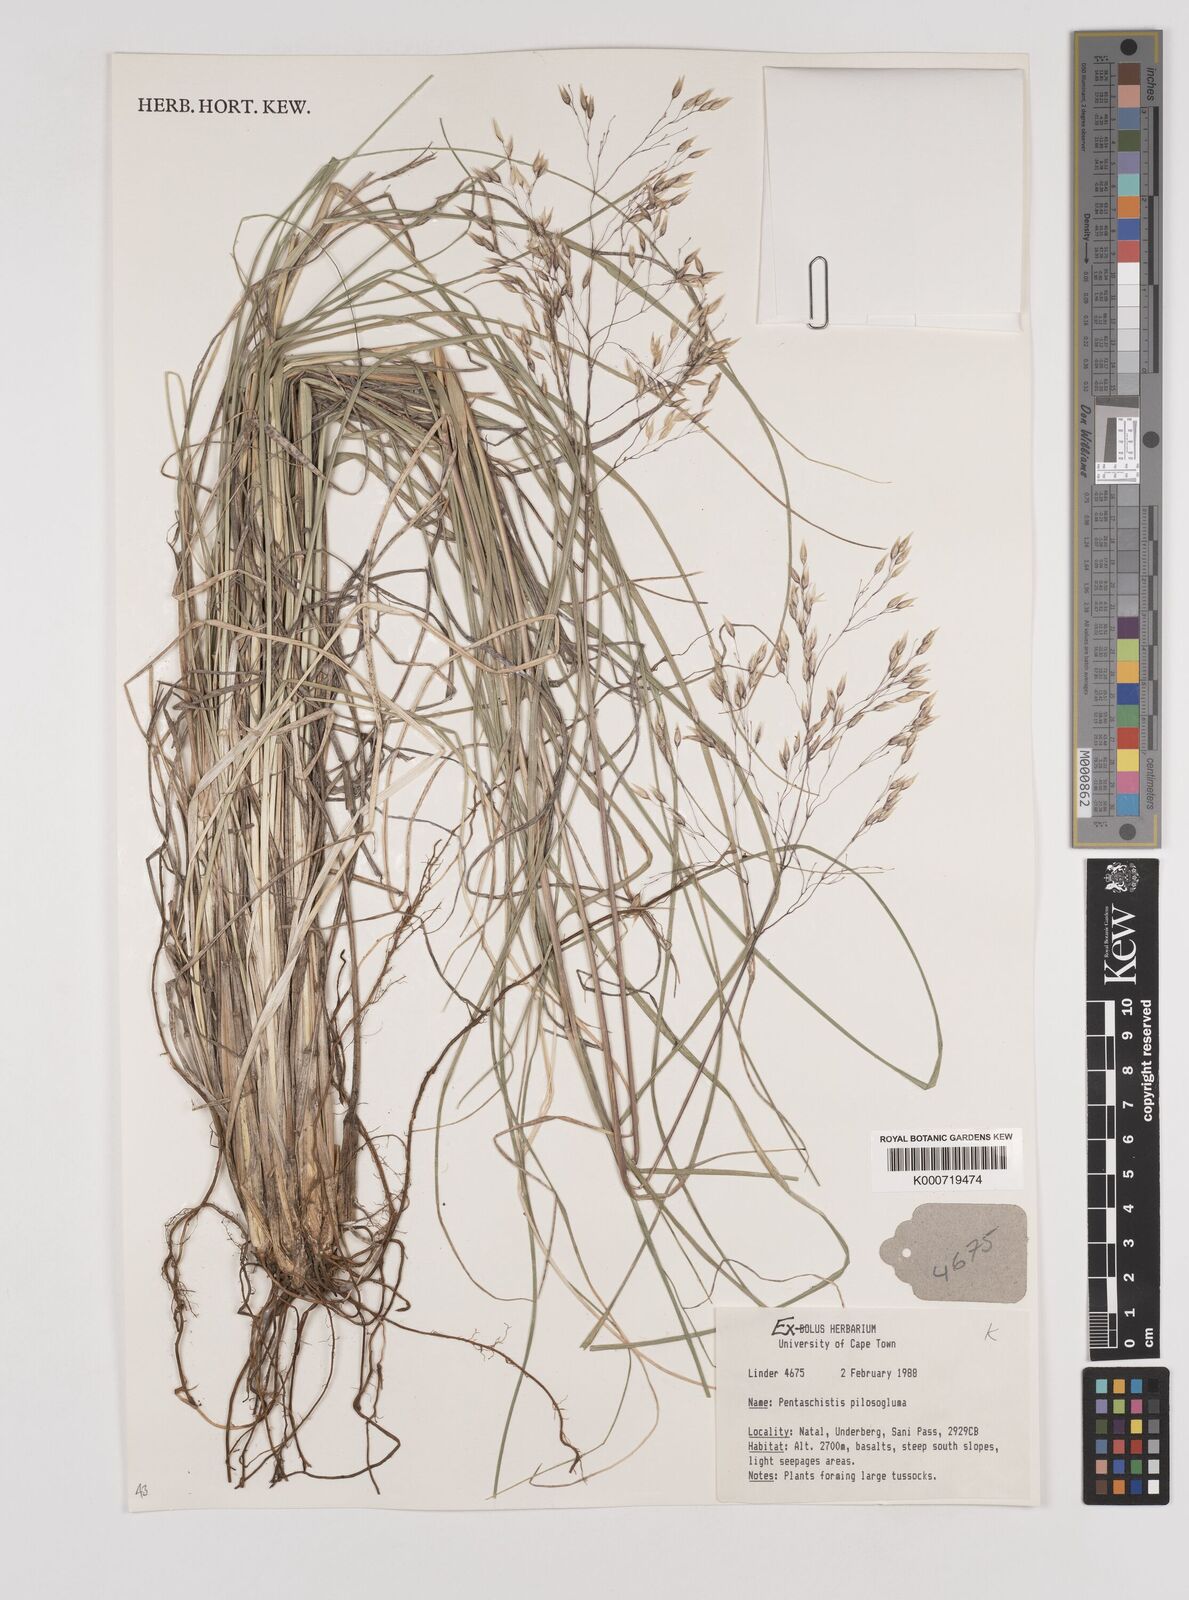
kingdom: Plantae
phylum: Tracheophyta
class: Liliopsida
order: Poales
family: Poaceae
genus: Pentameris
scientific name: Pentameris aurea
